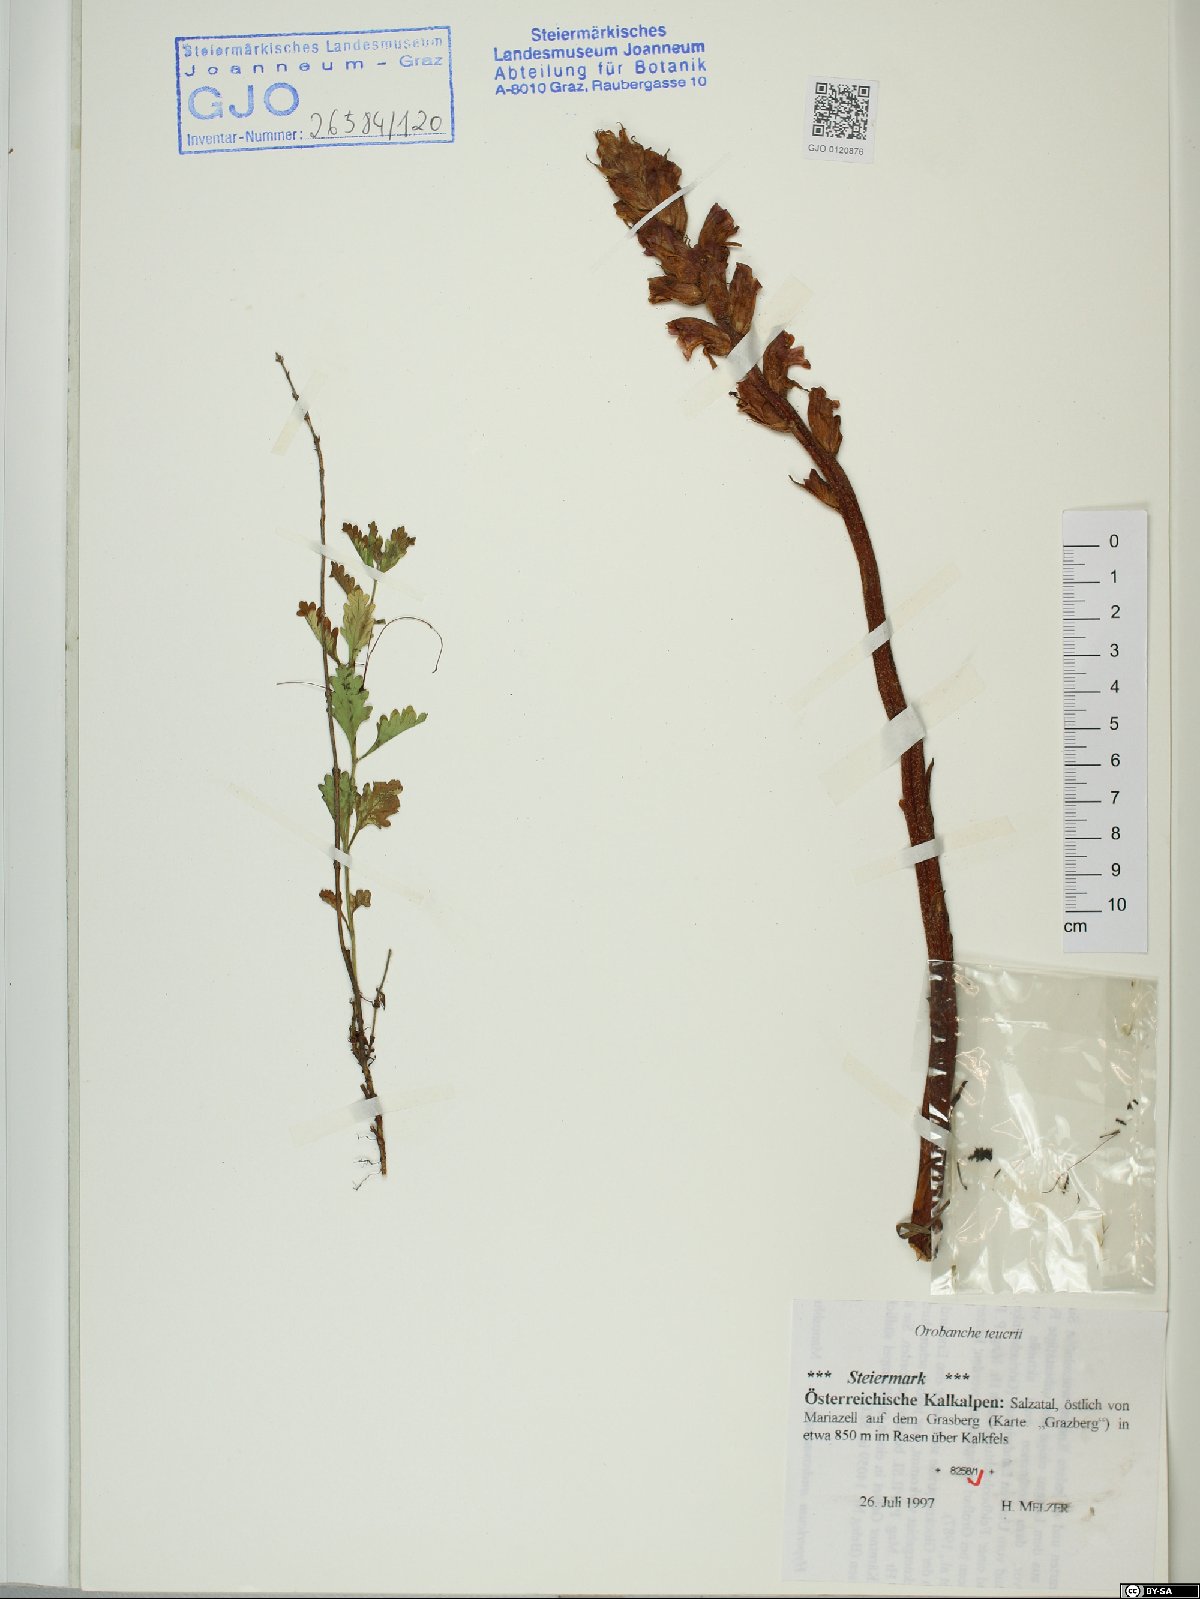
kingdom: Plantae
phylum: Tracheophyta
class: Magnoliopsida
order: Lamiales
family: Orobanchaceae
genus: Orobanche
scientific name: Orobanche teucrii
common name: Germander broomrape
